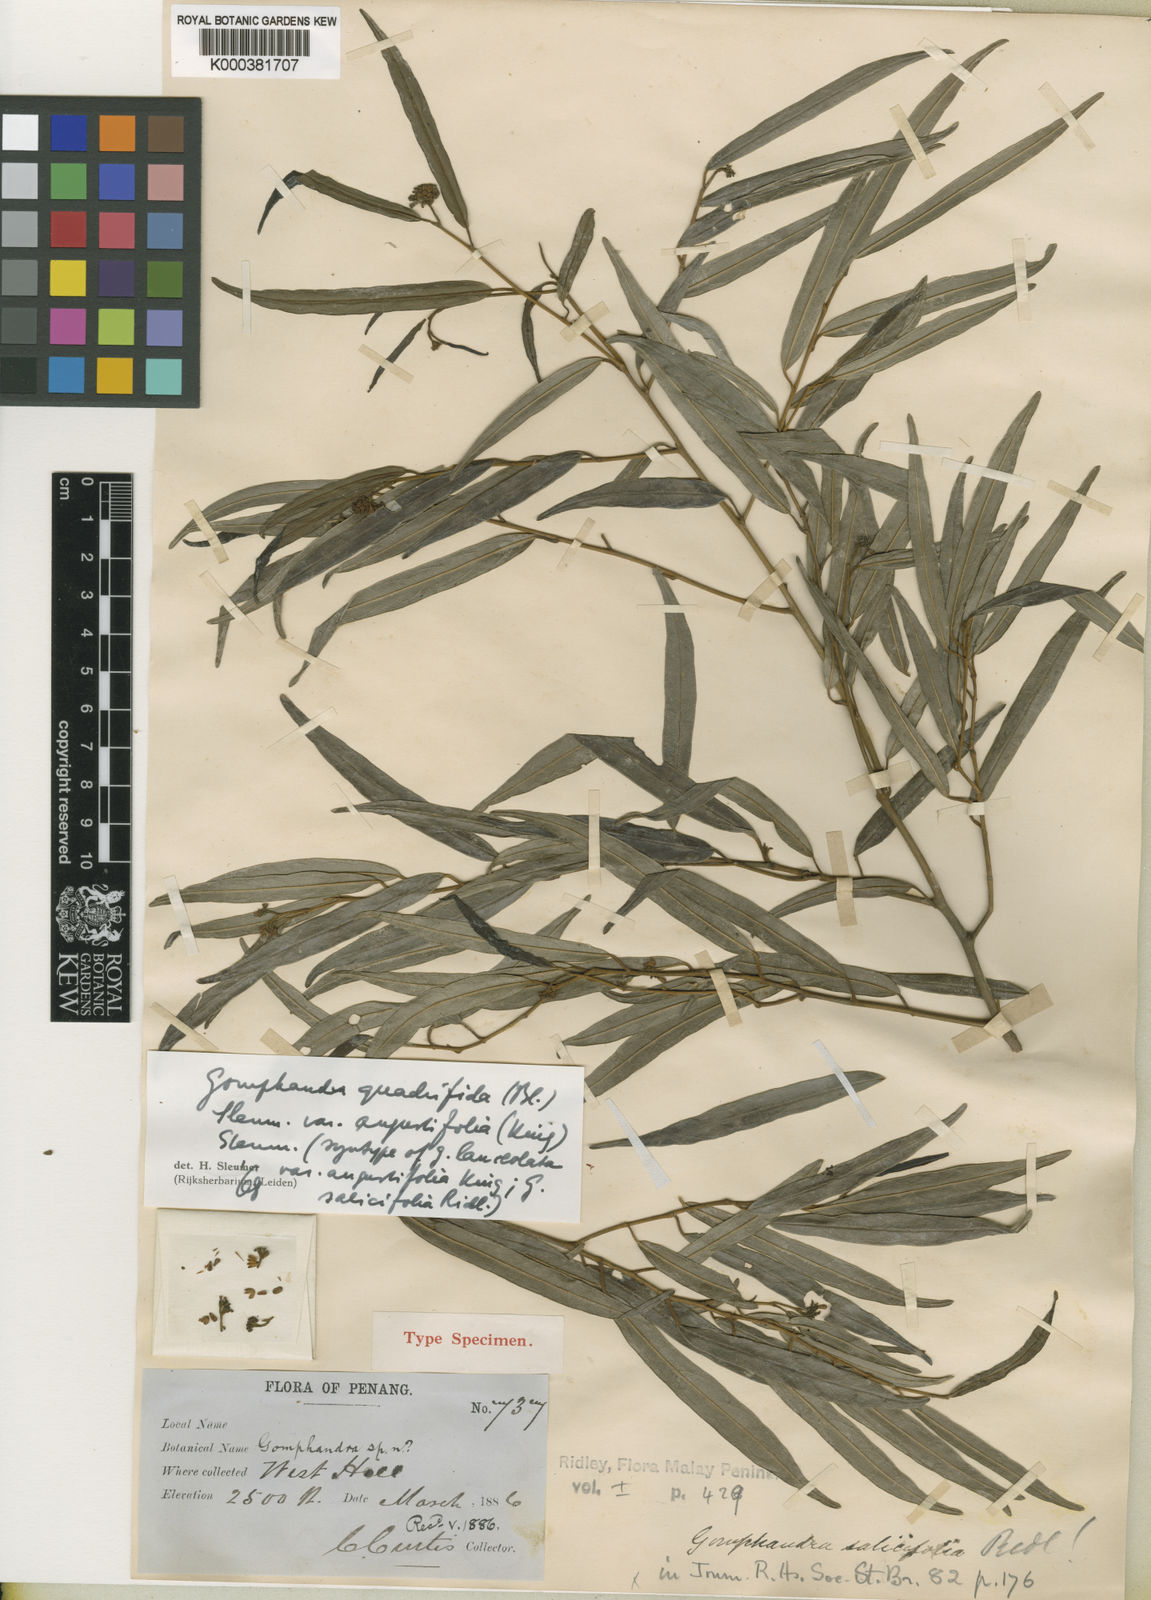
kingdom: Plantae
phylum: Tracheophyta
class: Magnoliopsida
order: Cardiopteridales
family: Stemonuraceae
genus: Gomphandra
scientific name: Gomphandra quadrifida
